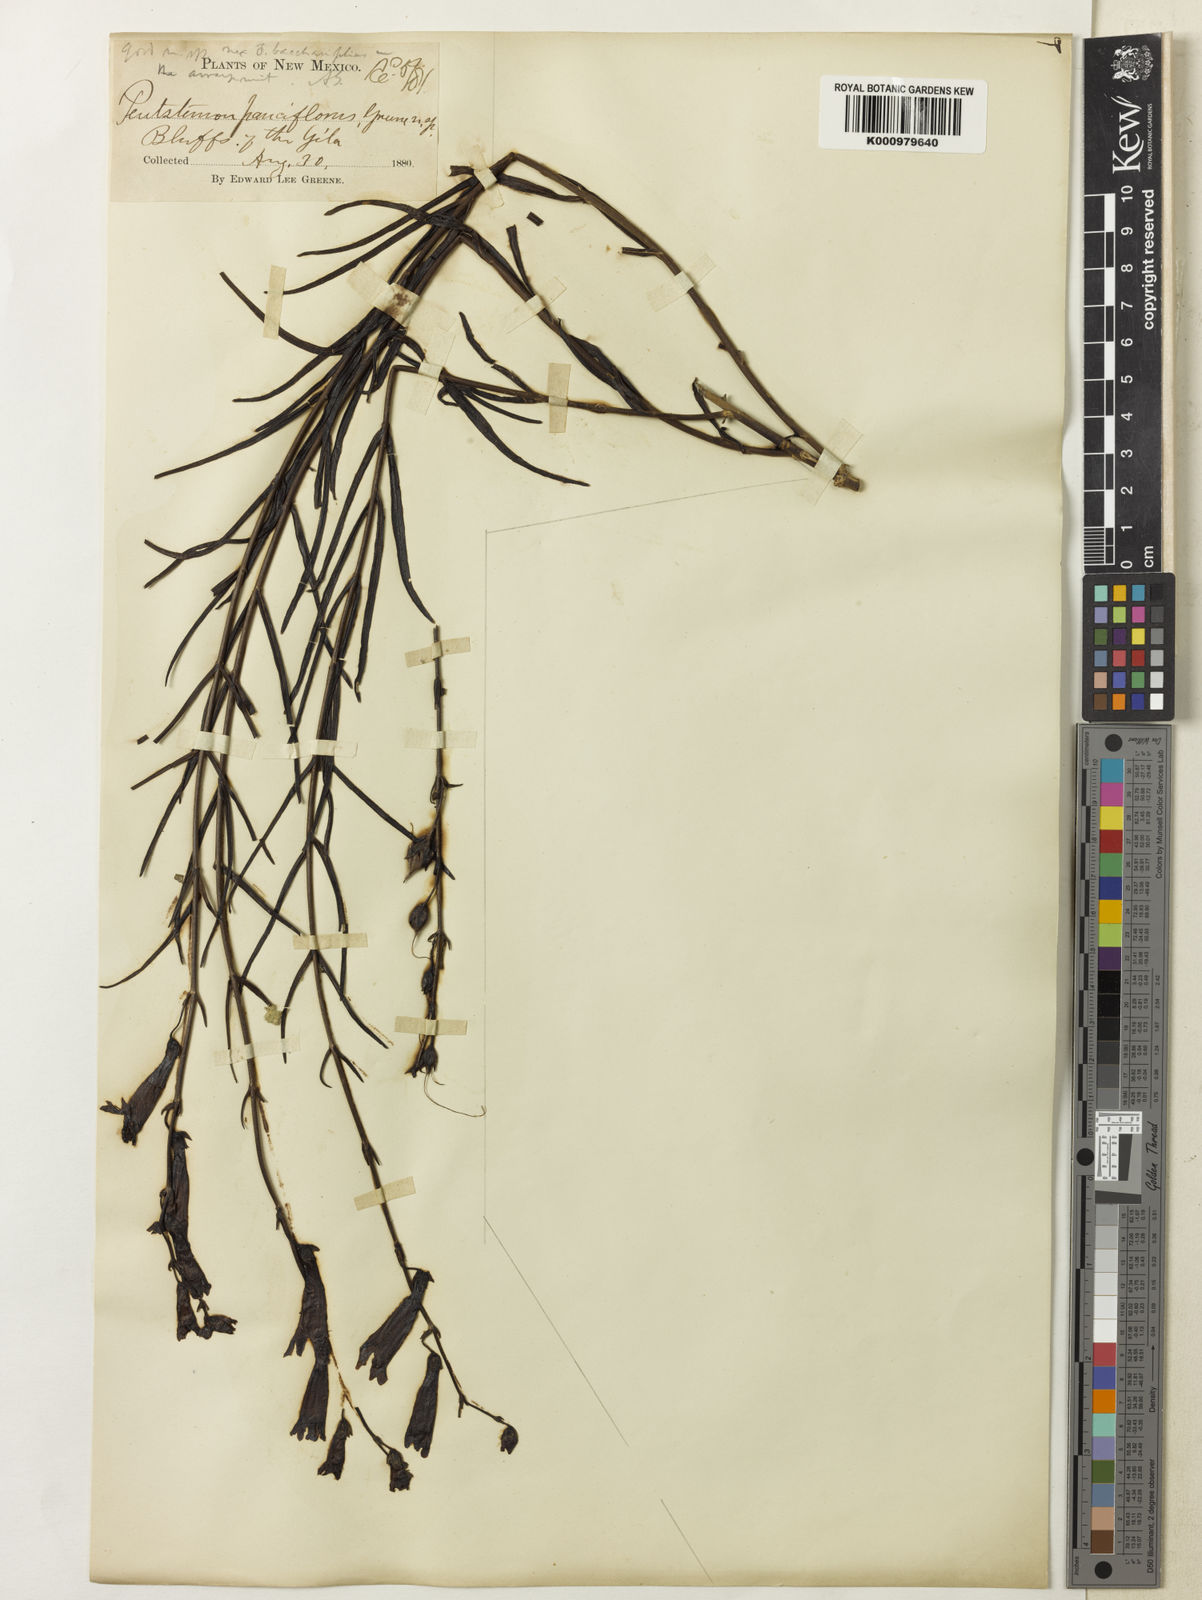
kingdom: Plantae
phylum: Tracheophyta
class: Magnoliopsida
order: Lamiales
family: Plantaginaceae
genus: Penstemon
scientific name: Penstemon lanceolatus
